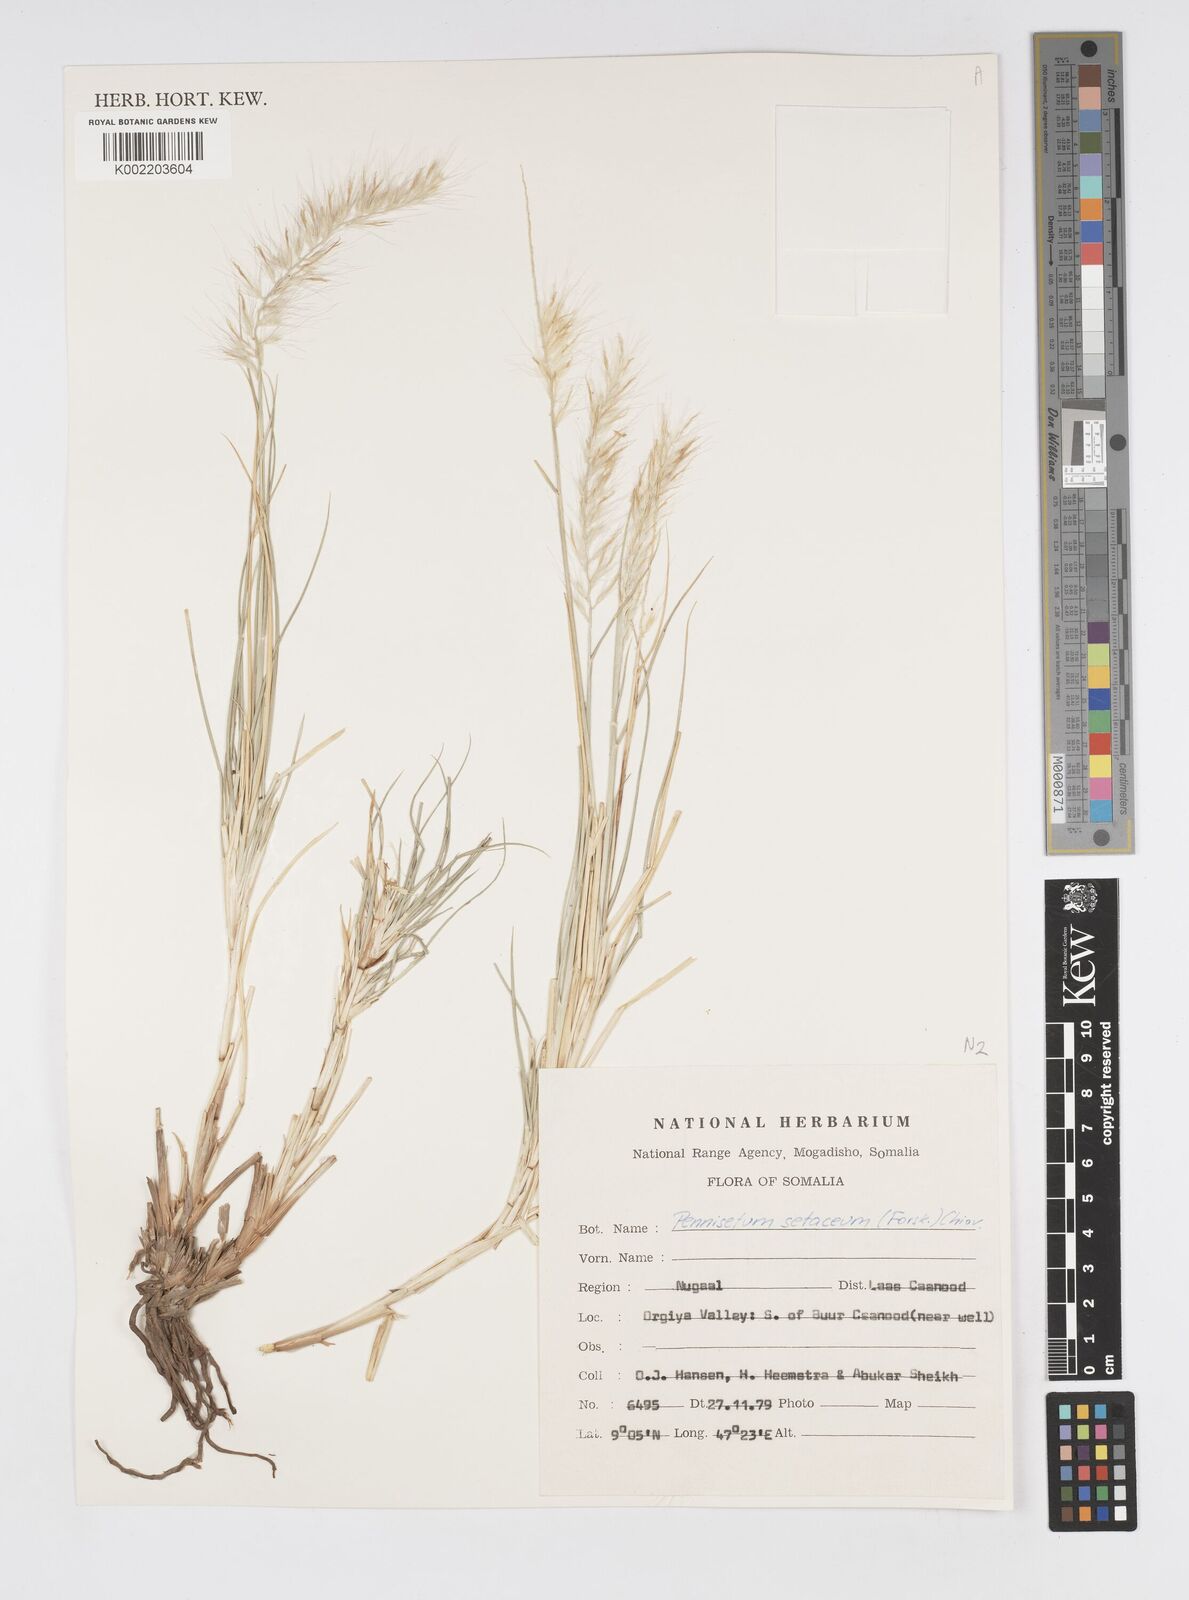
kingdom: Plantae
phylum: Tracheophyta
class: Liliopsida
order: Poales
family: Poaceae
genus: Cenchrus
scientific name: Cenchrus setaceus
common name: Crimson fountaingrass
